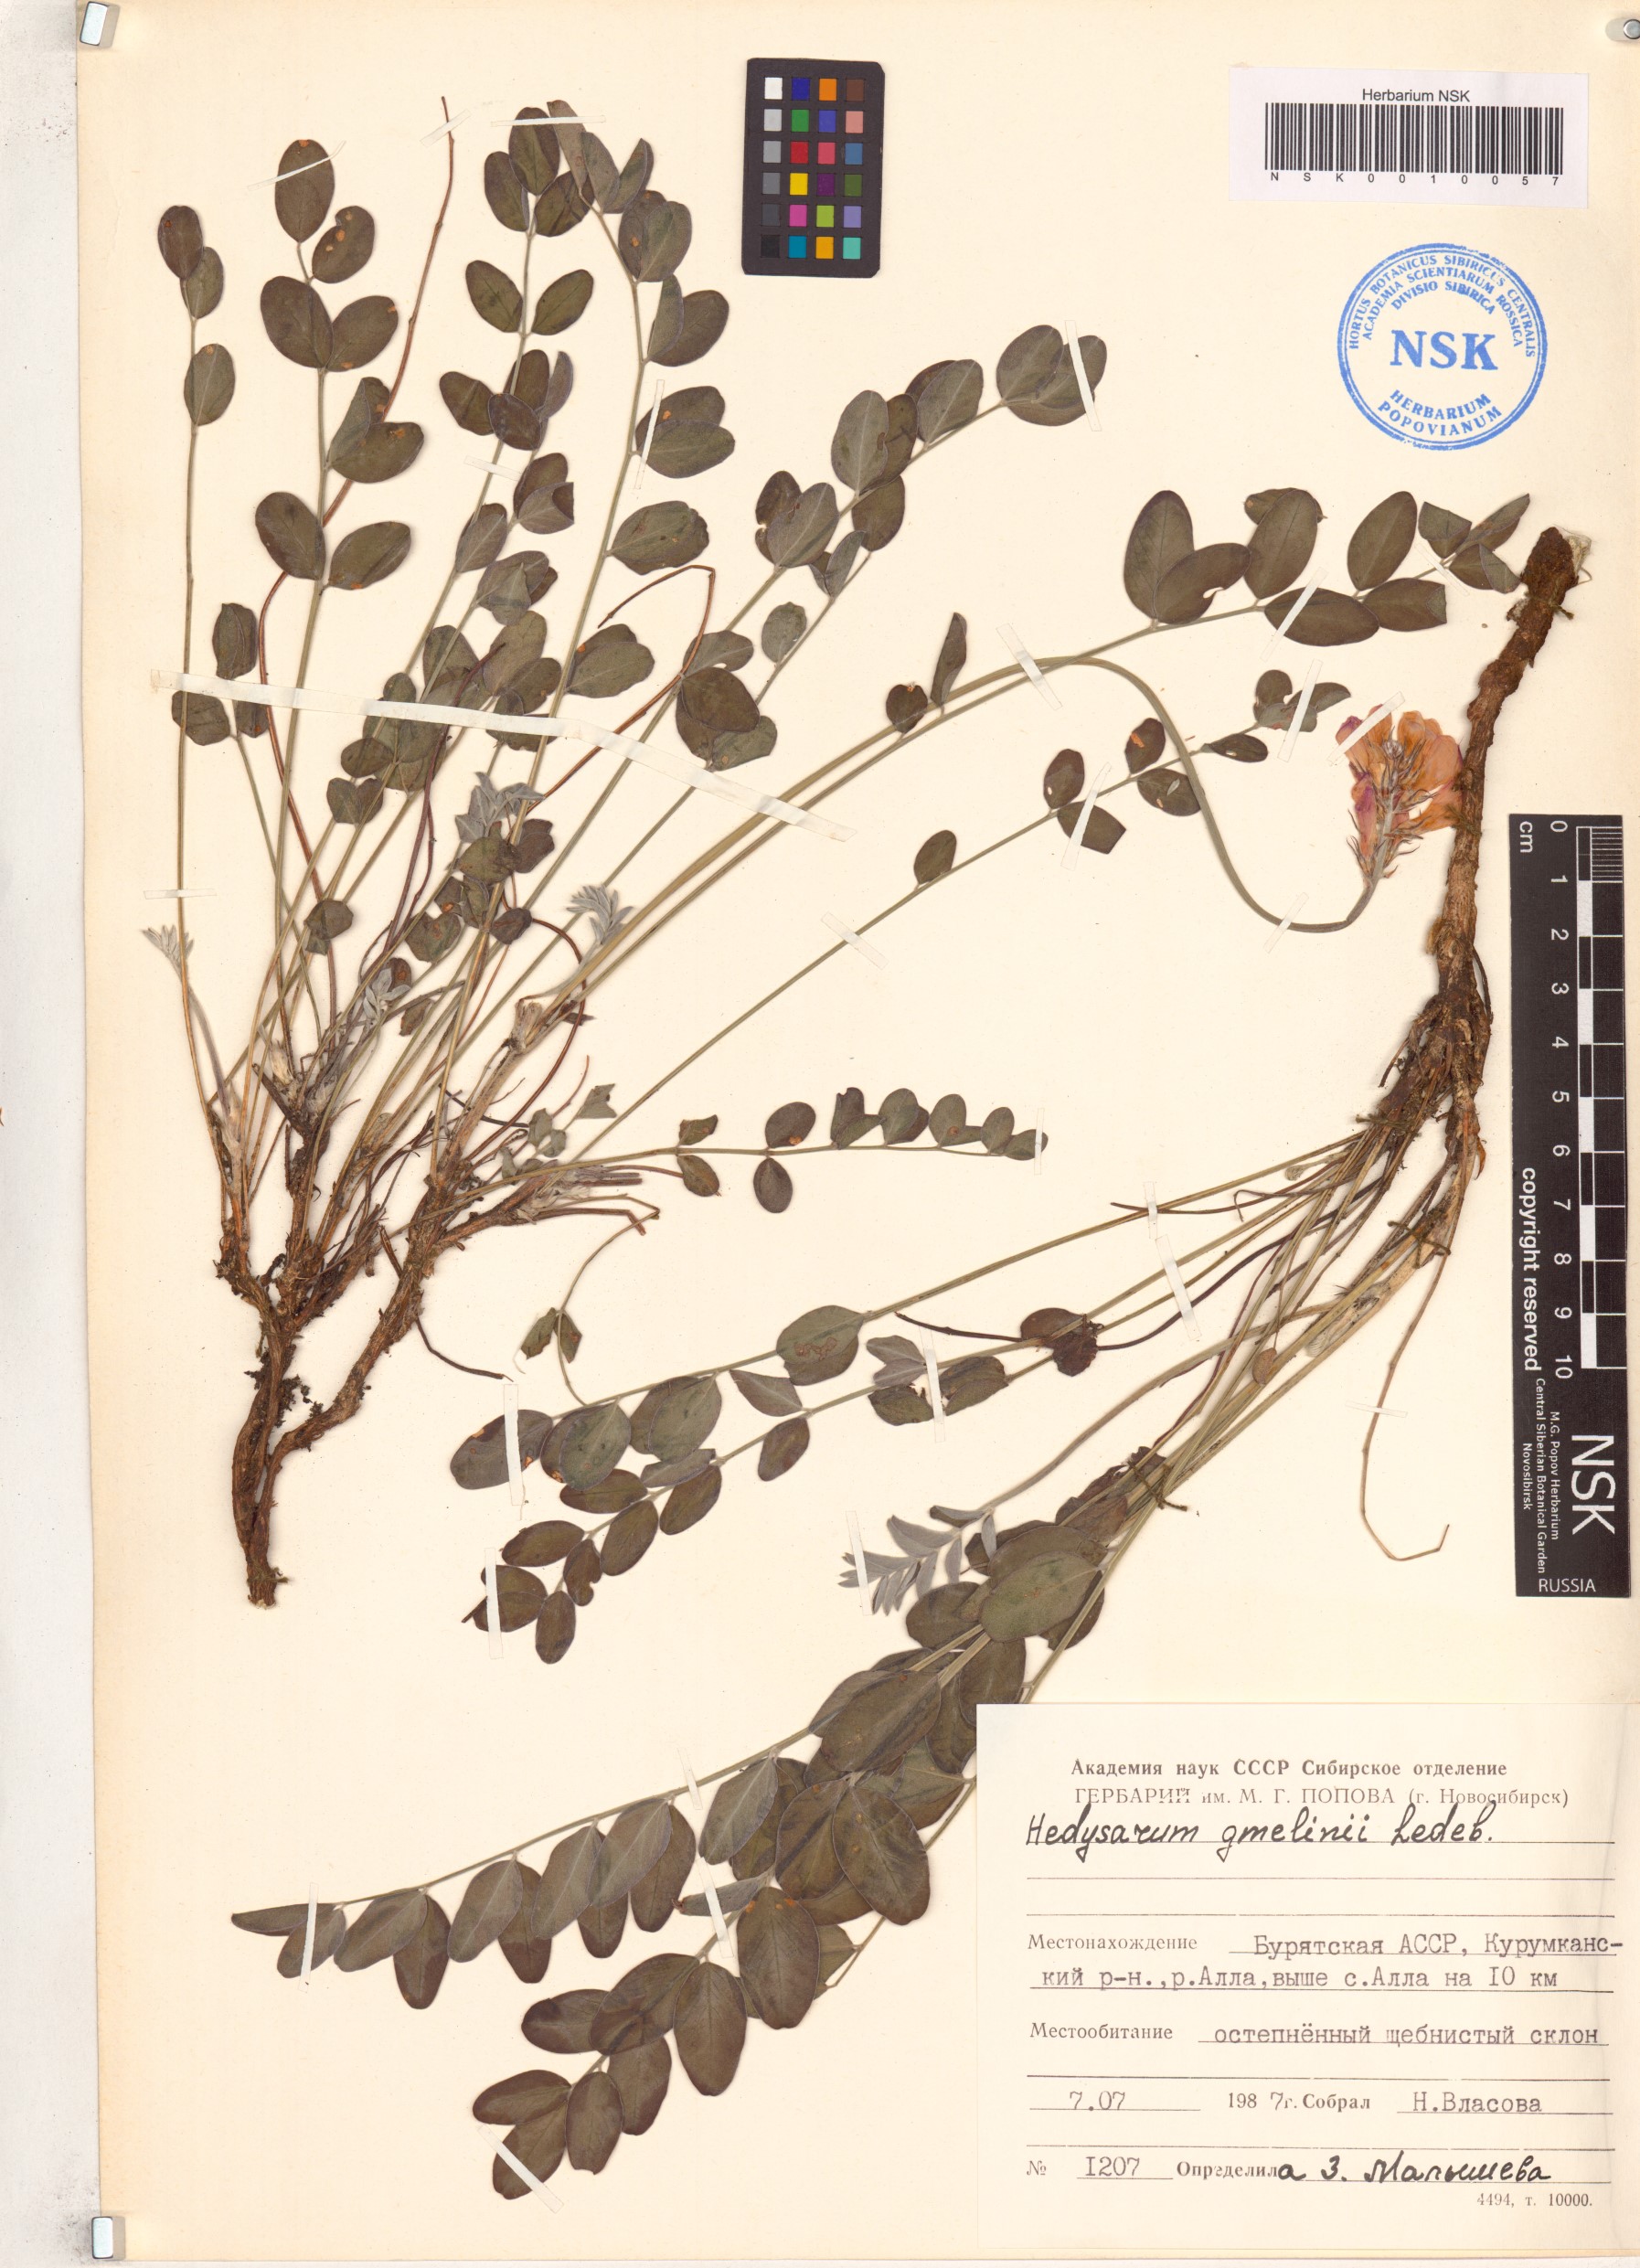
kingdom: Plantae
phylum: Tracheophyta
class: Magnoliopsida
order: Fabales
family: Fabaceae
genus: Hedysarum
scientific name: Hedysarum gmelinii
